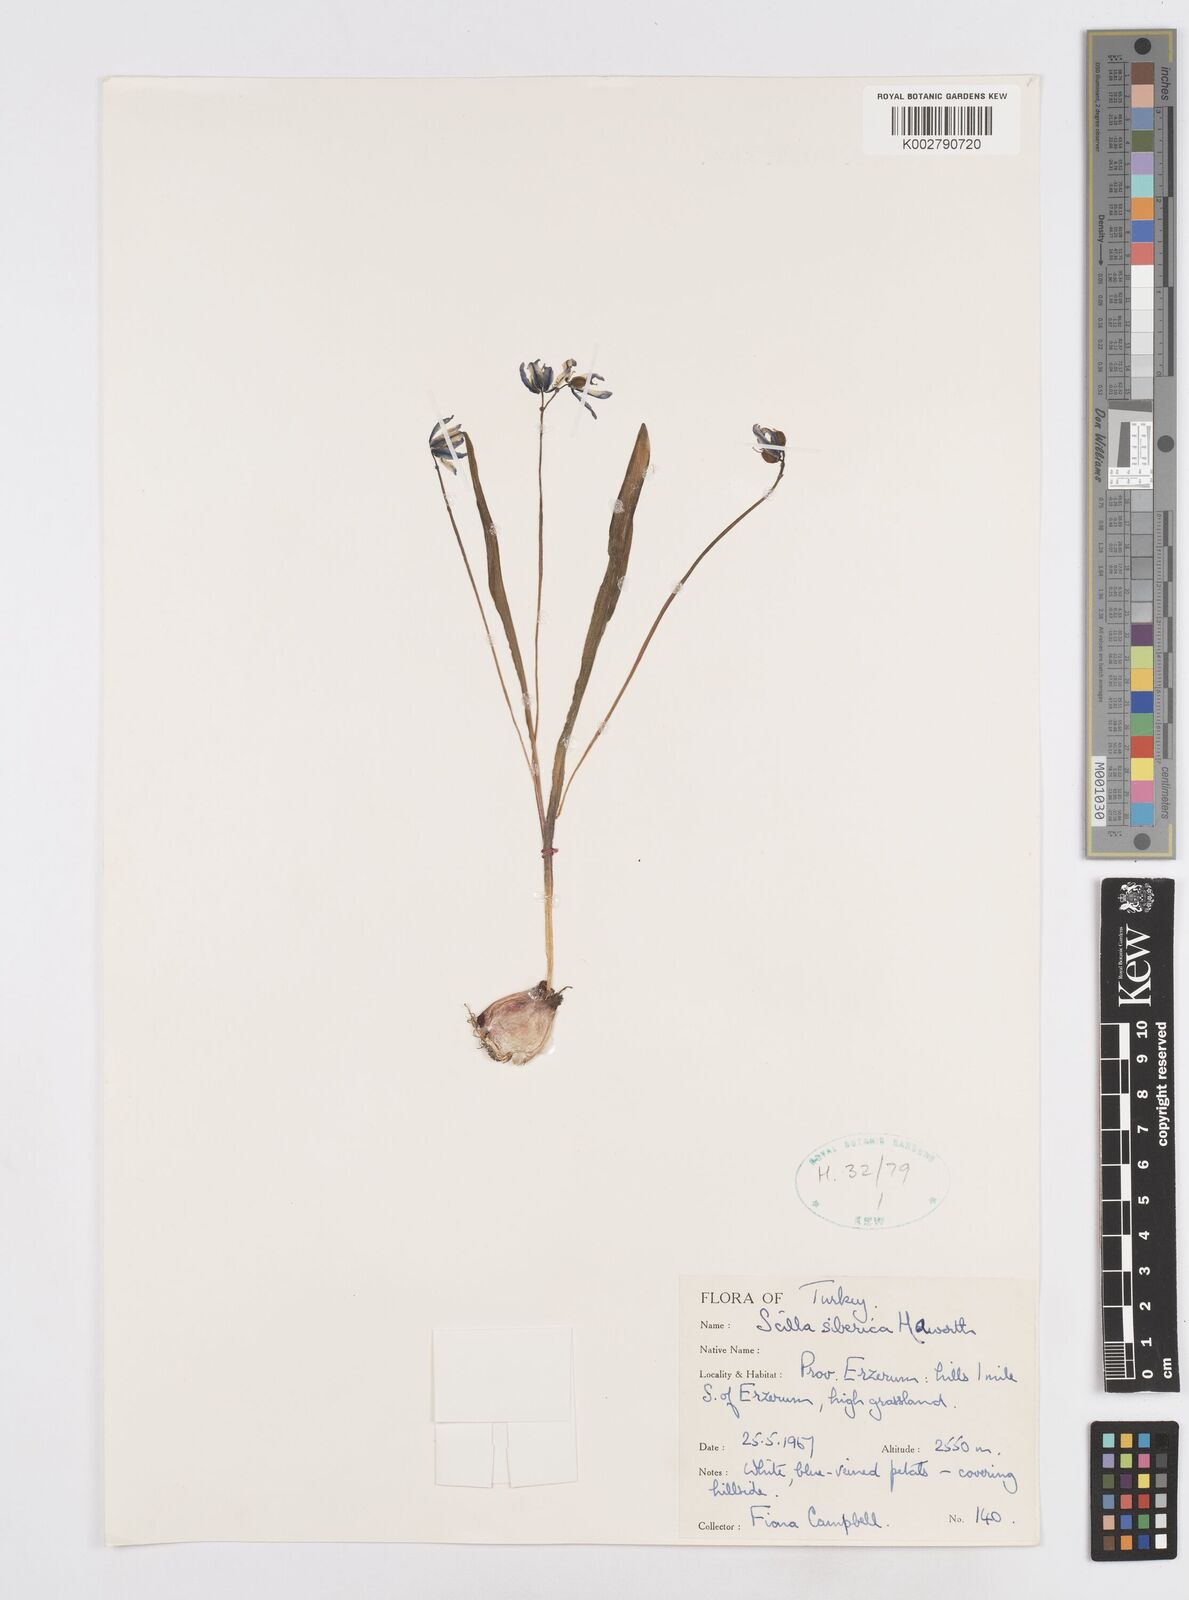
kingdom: Plantae
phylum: Tracheophyta
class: Liliopsida
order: Asparagales
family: Asparagaceae
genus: Scilla
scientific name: Scilla siberica
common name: Siberian squill
